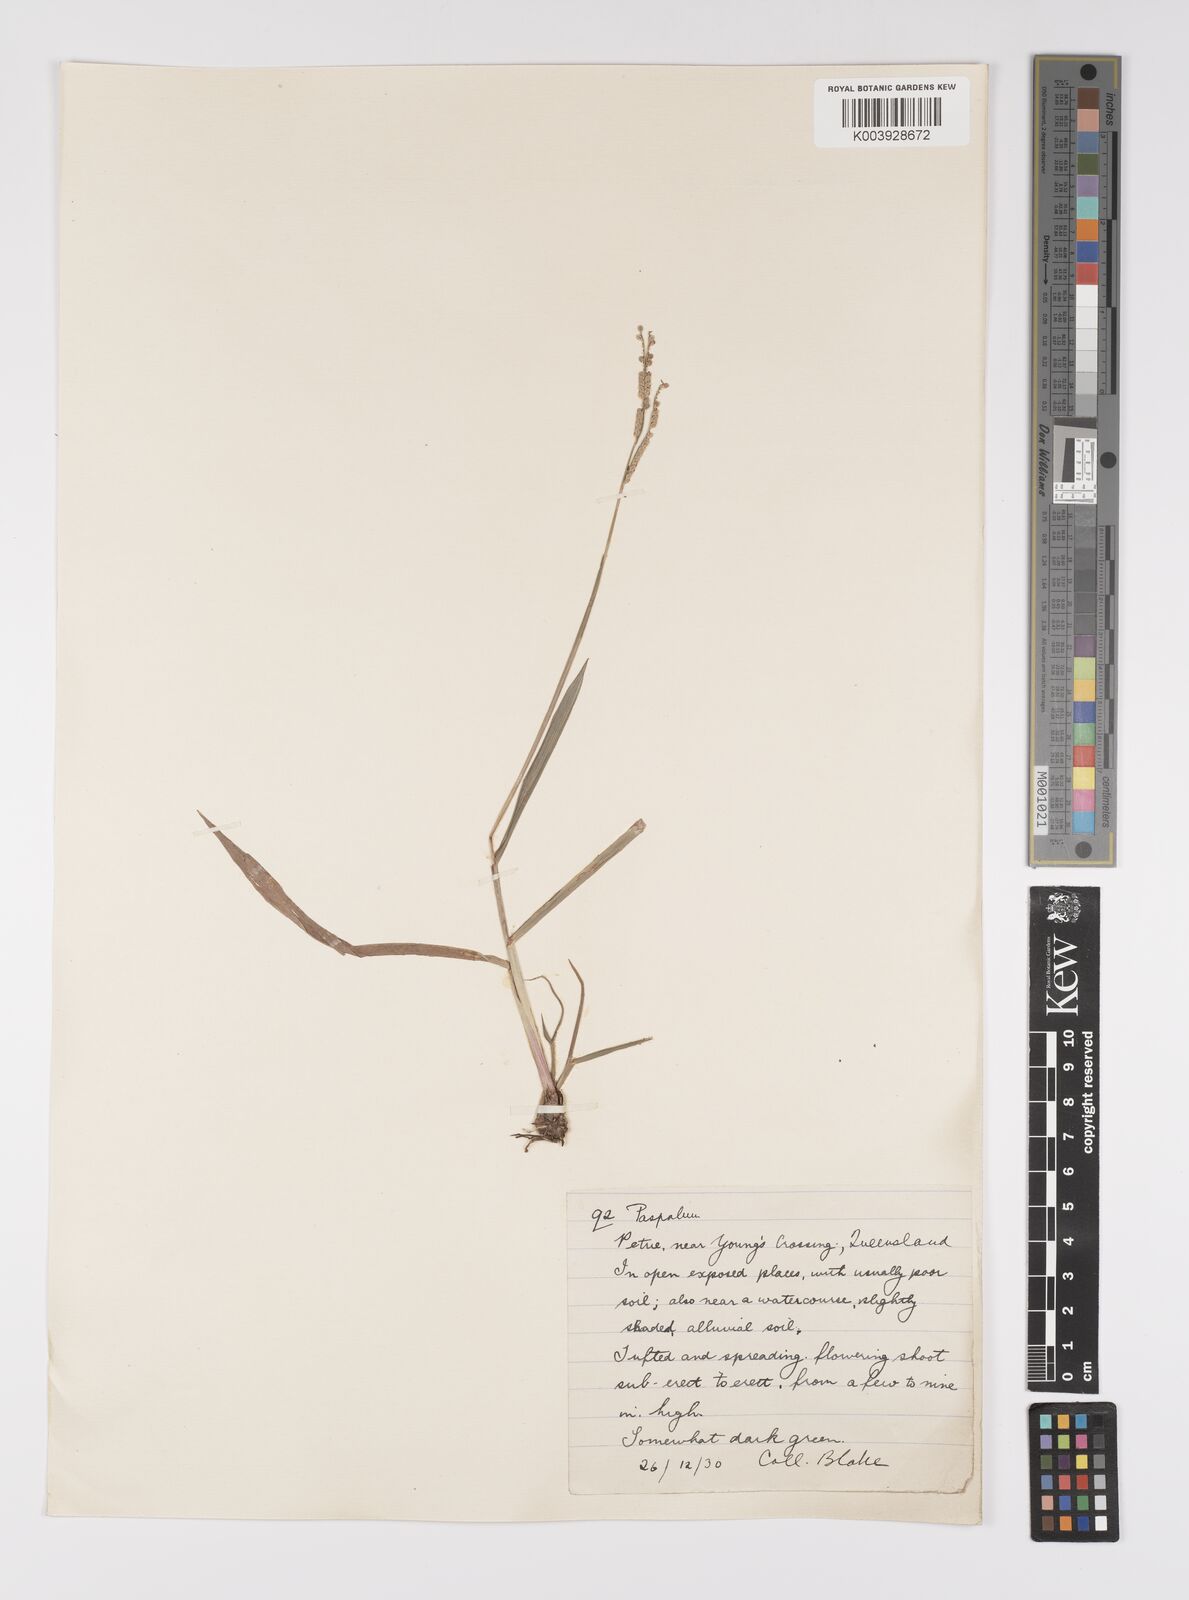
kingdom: Plantae
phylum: Tracheophyta
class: Liliopsida
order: Poales
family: Poaceae
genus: Paspalum
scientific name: Paspalum scrobiculatum
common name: Kodo millet
